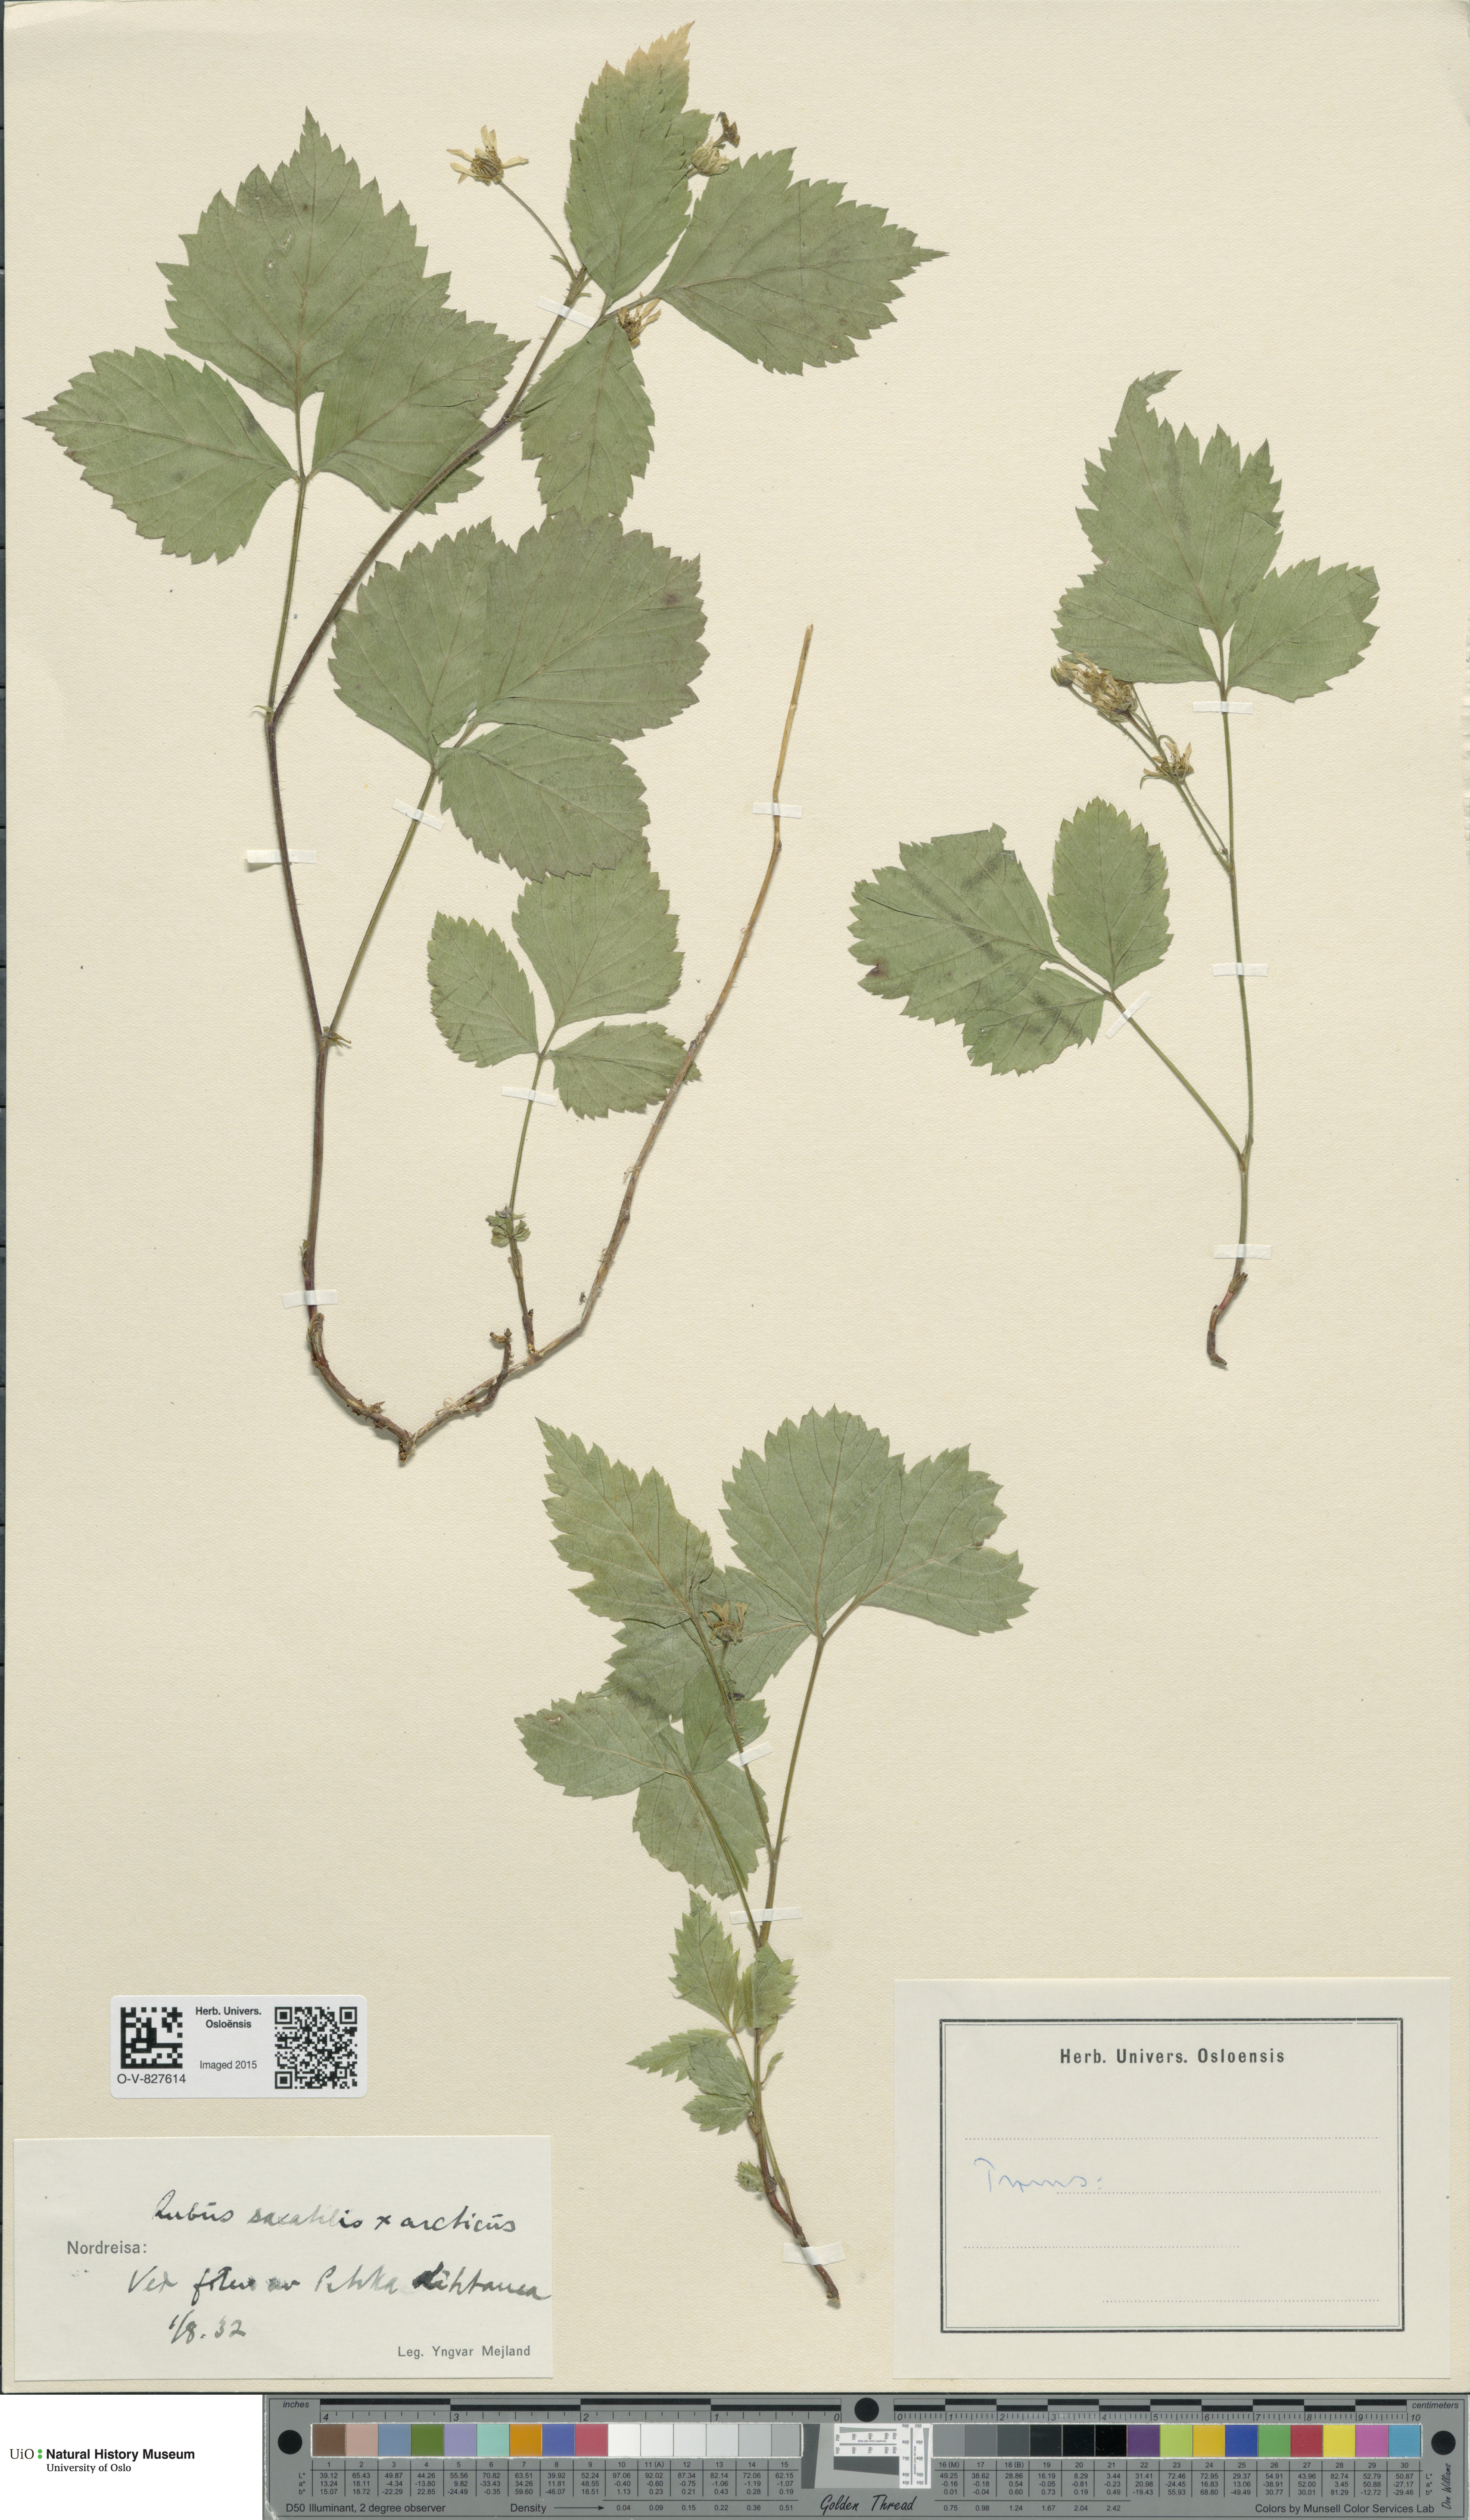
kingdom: Plantae
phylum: Tracheophyta
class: Magnoliopsida
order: Rosales
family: Rosaceae
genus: Rubus
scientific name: Rubus
